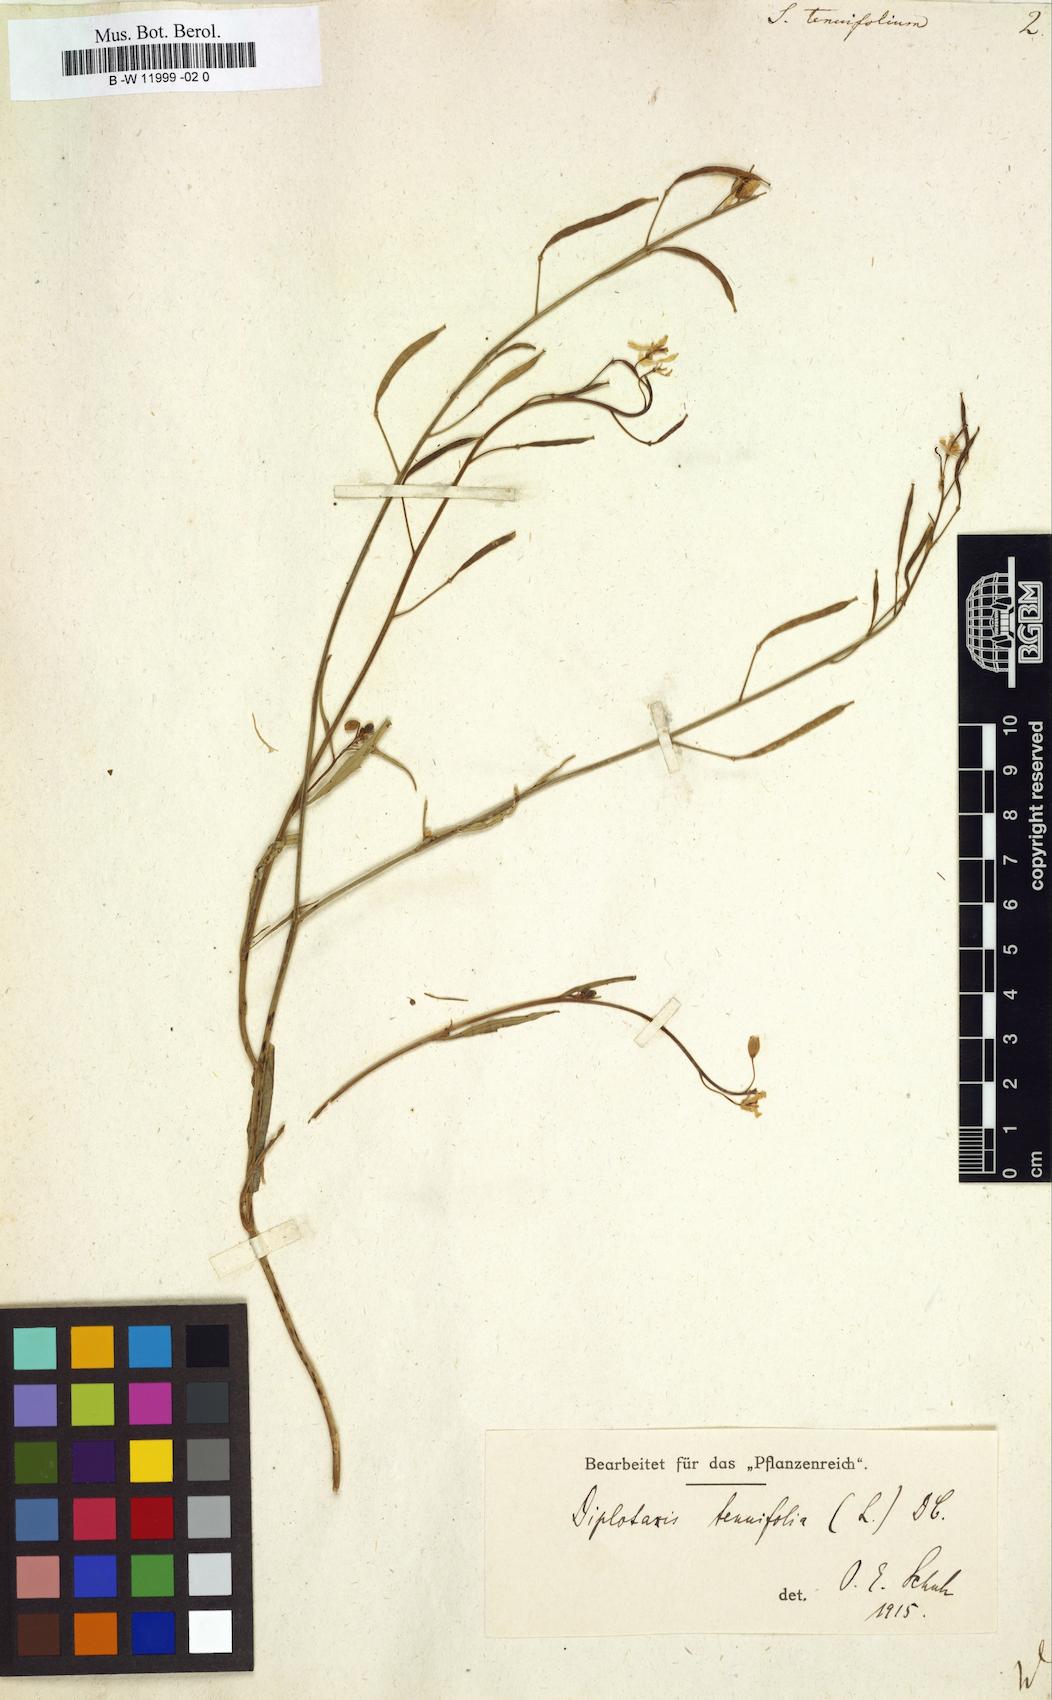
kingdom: Plantae
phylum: Tracheophyta
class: Magnoliopsida
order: Brassicales
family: Brassicaceae
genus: Sisymbrium
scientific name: Sisymbrium tenuifolium
